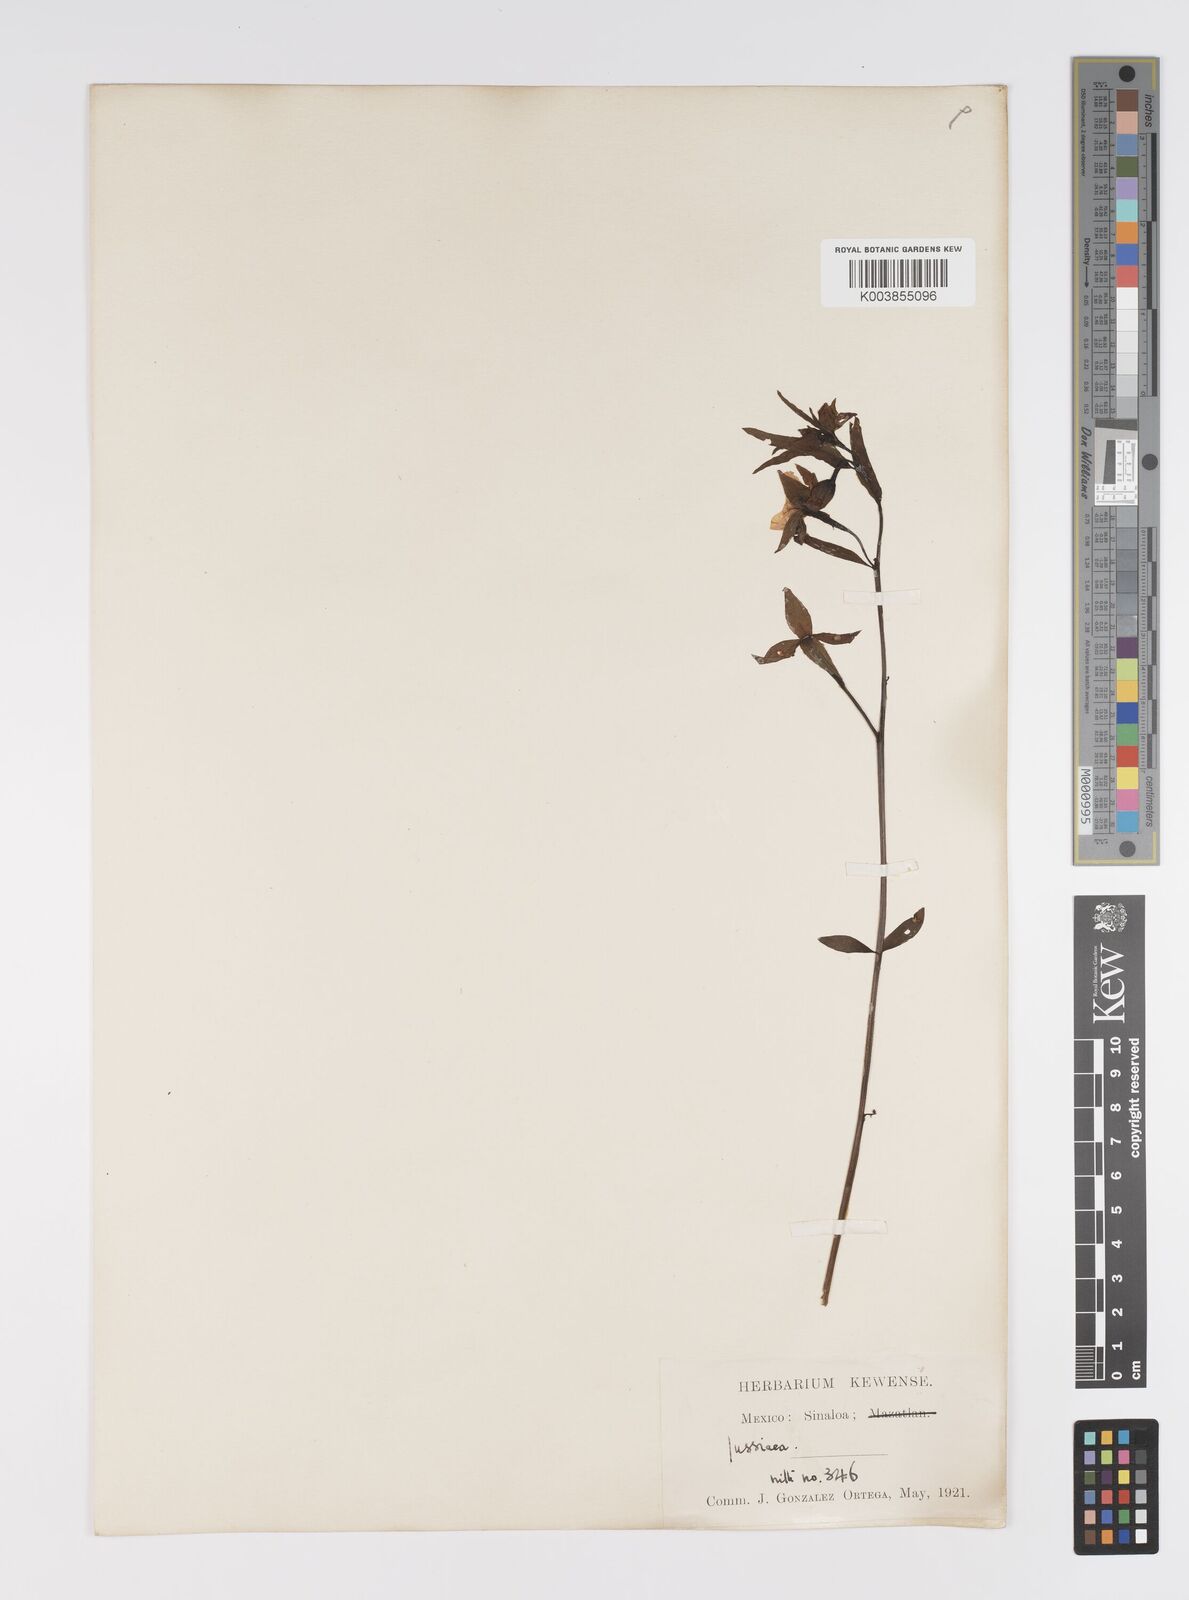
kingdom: Plantae
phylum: Tracheophyta
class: Magnoliopsida
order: Myrtales
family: Onagraceae
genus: Ludwigia
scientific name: Ludwigia octovalvis
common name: Water-primrose
